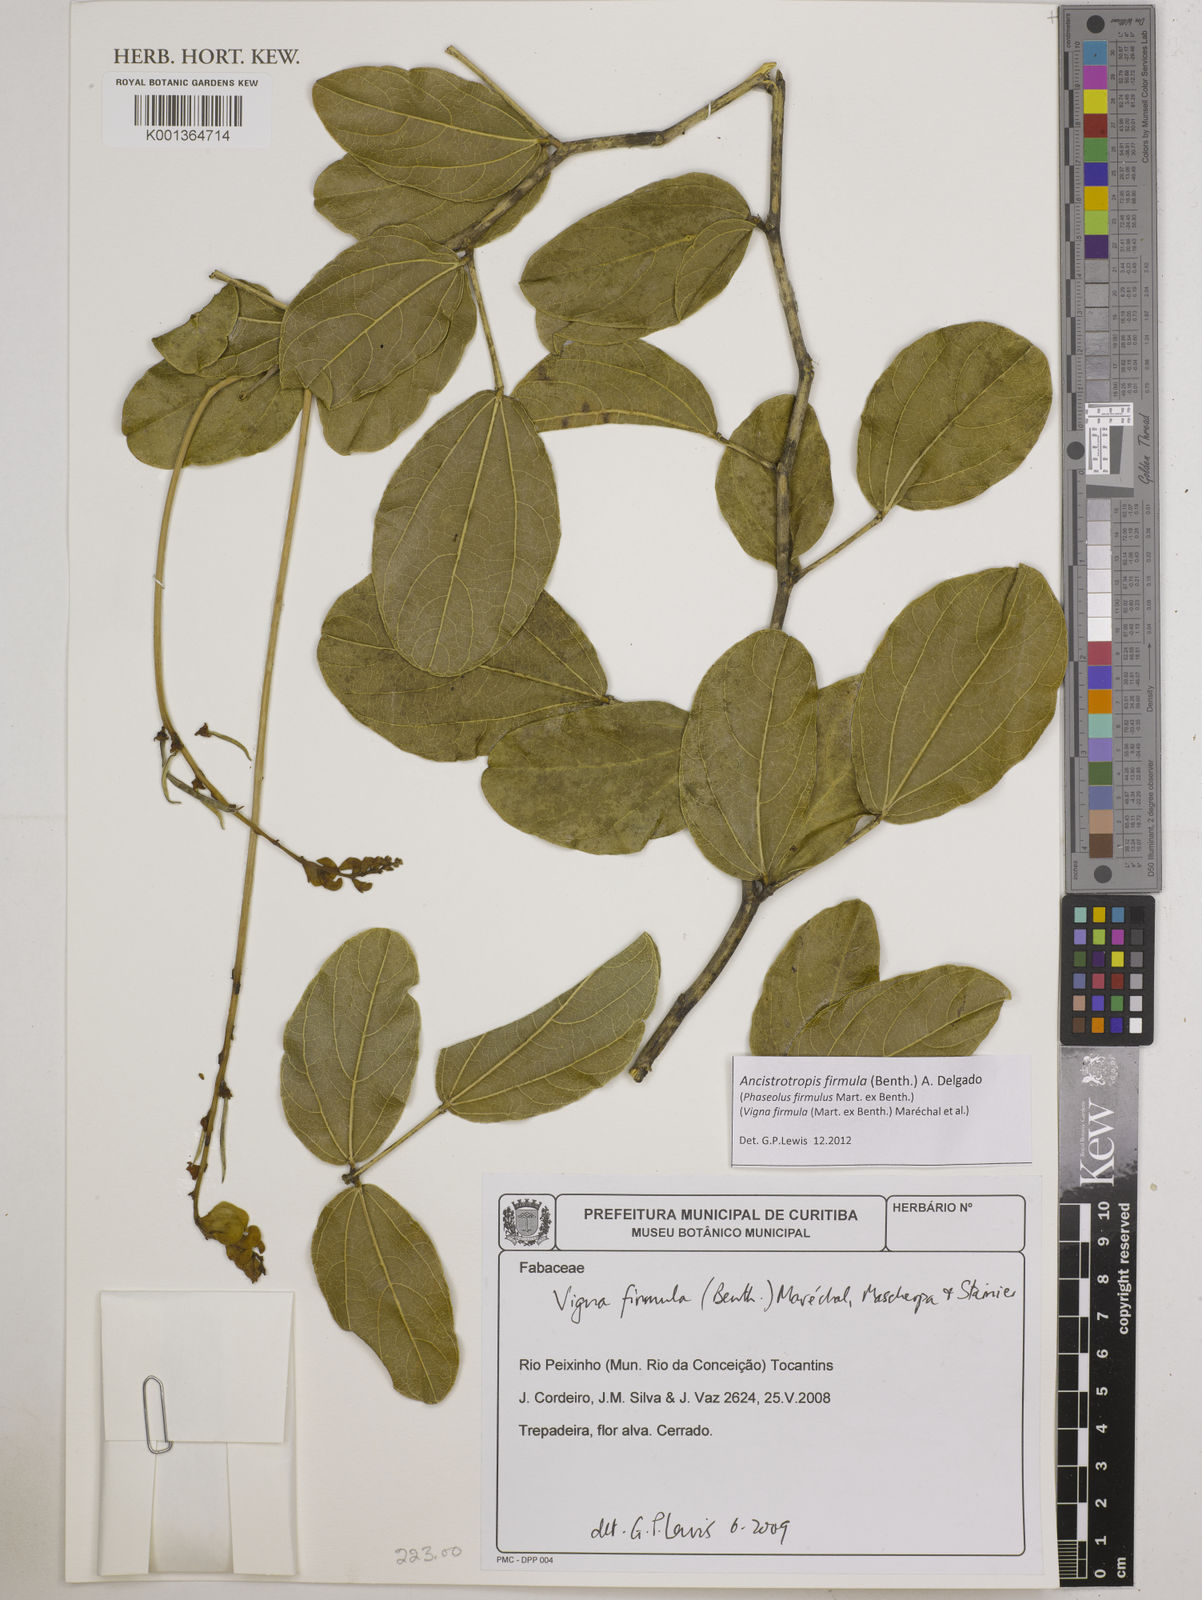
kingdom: Plantae
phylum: Tracheophyta
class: Magnoliopsida
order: Fabales
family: Fabaceae
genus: Ancistrotropis
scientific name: Ancistrotropis firmula
